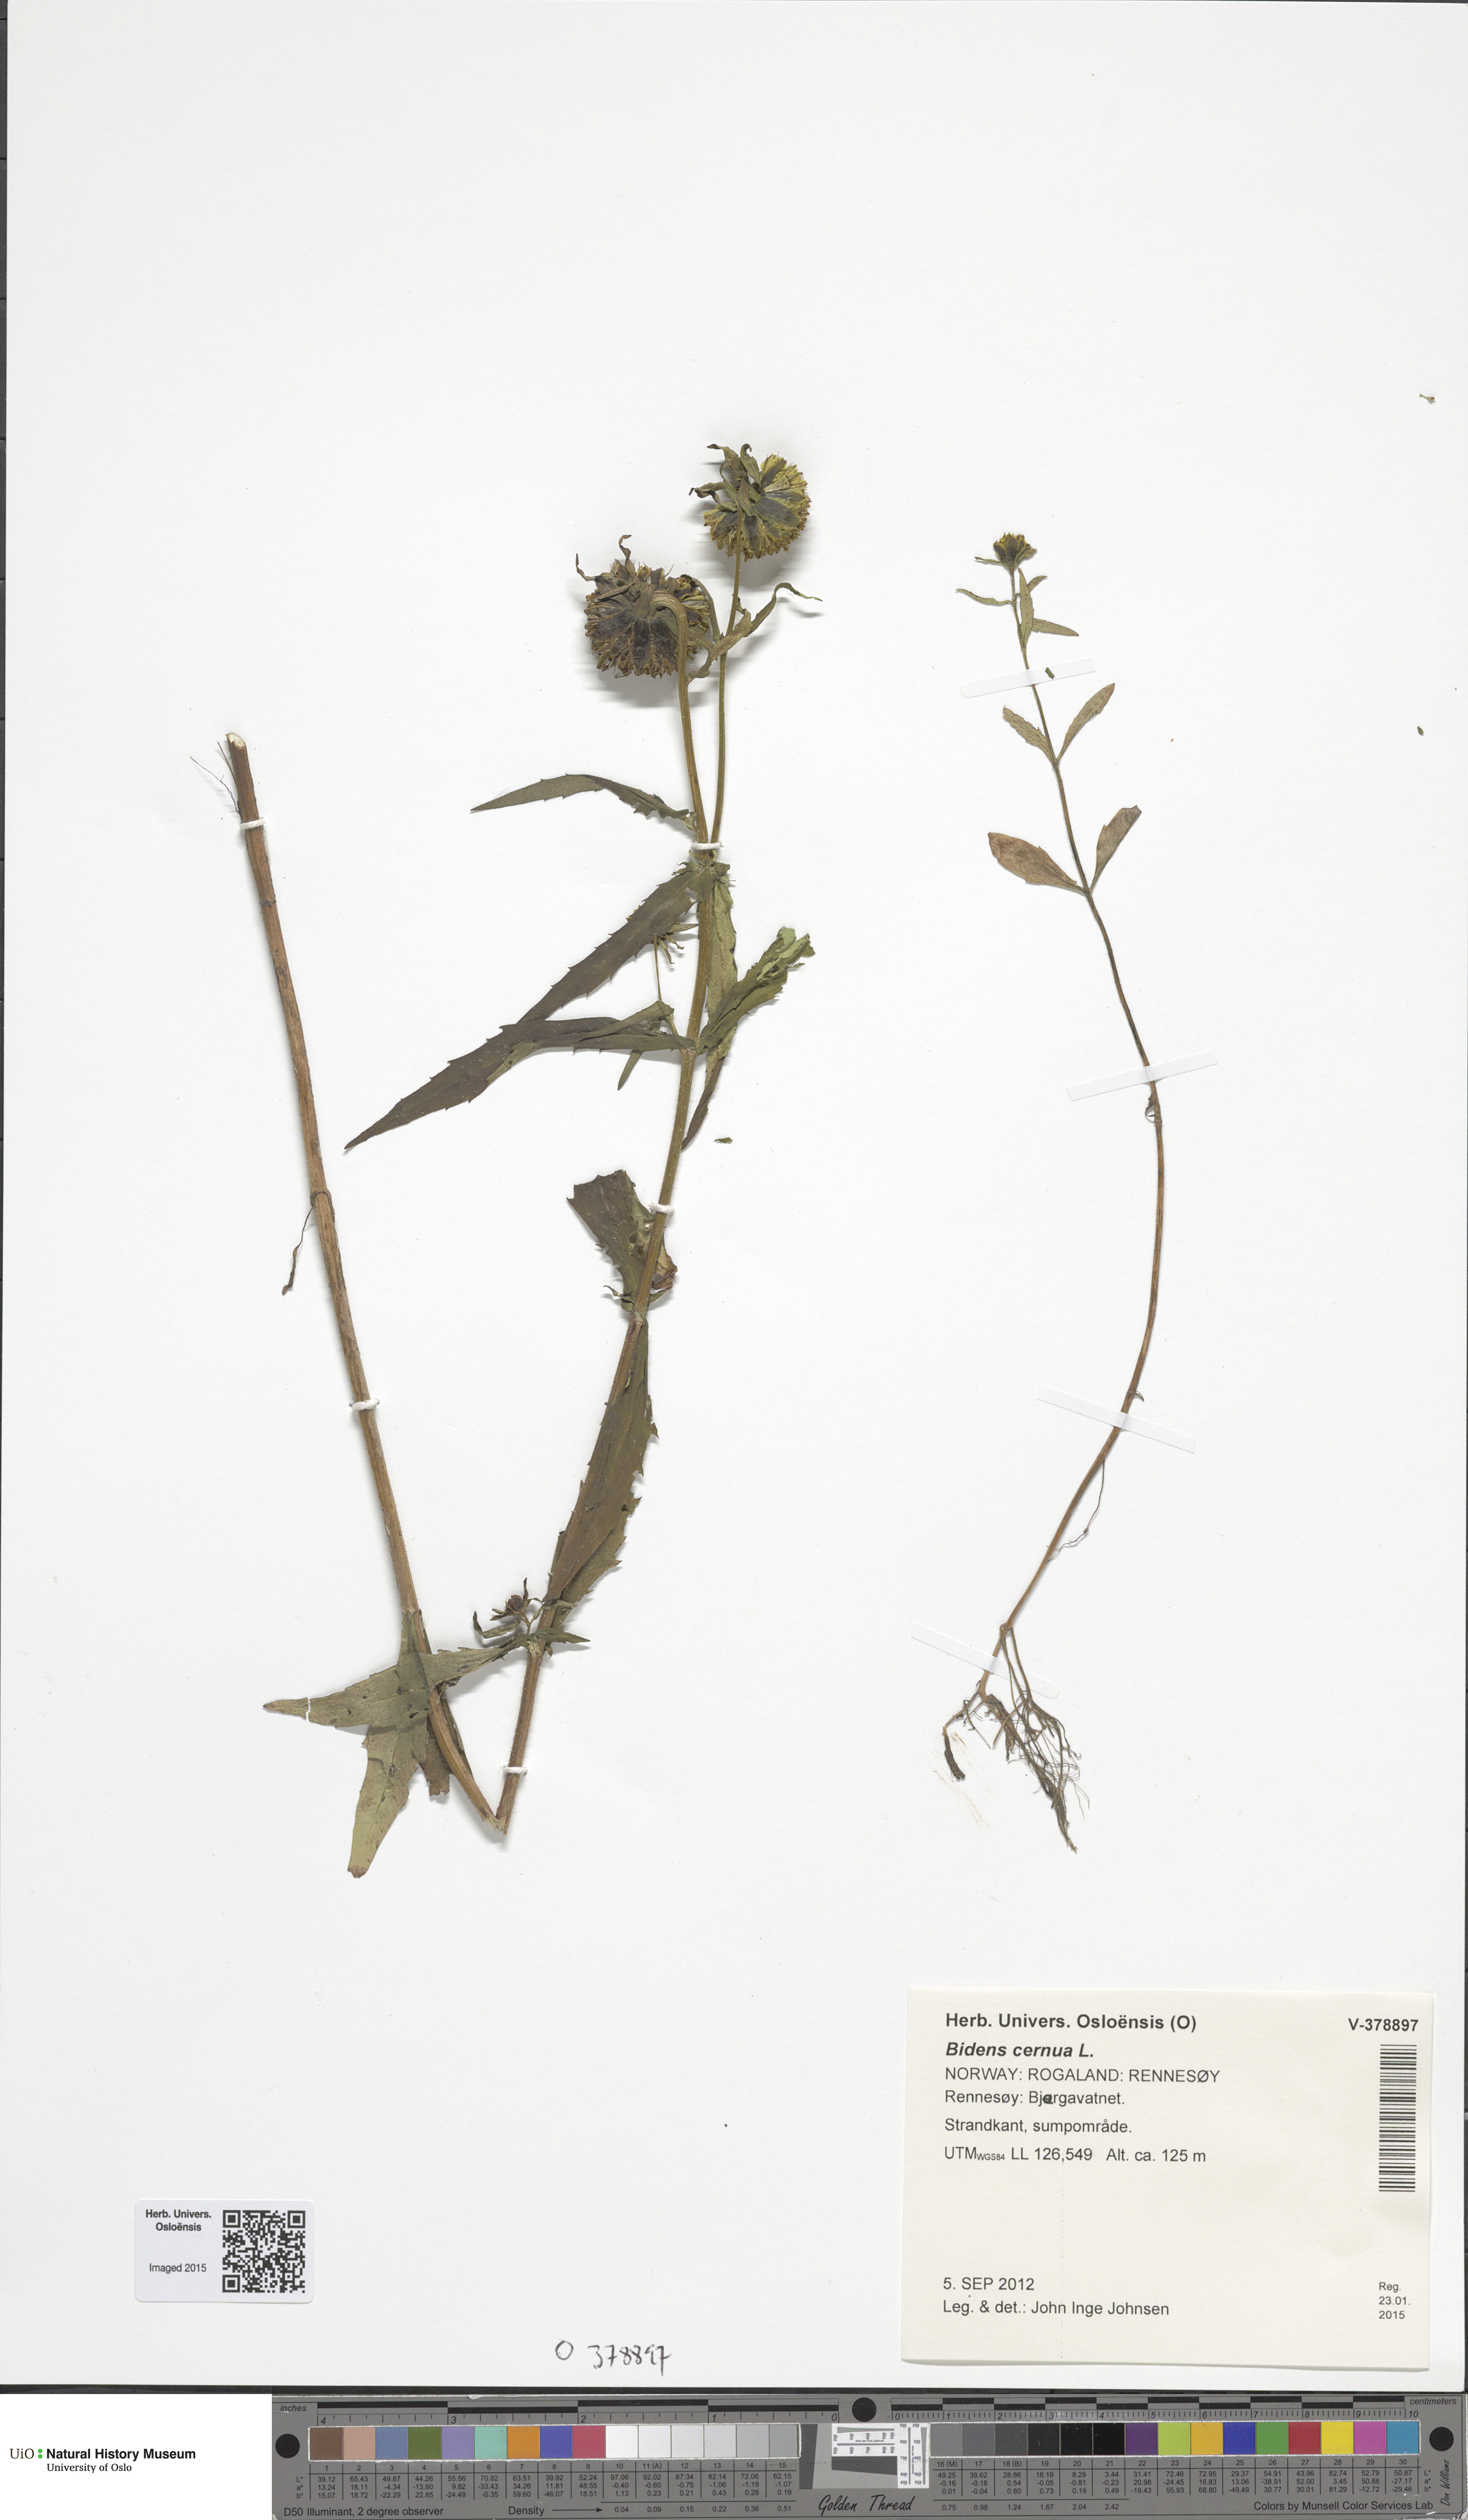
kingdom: Plantae
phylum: Tracheophyta
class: Magnoliopsida
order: Asterales
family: Asteraceae
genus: Bidens
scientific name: Bidens cernua
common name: Nodding bur-marigold
